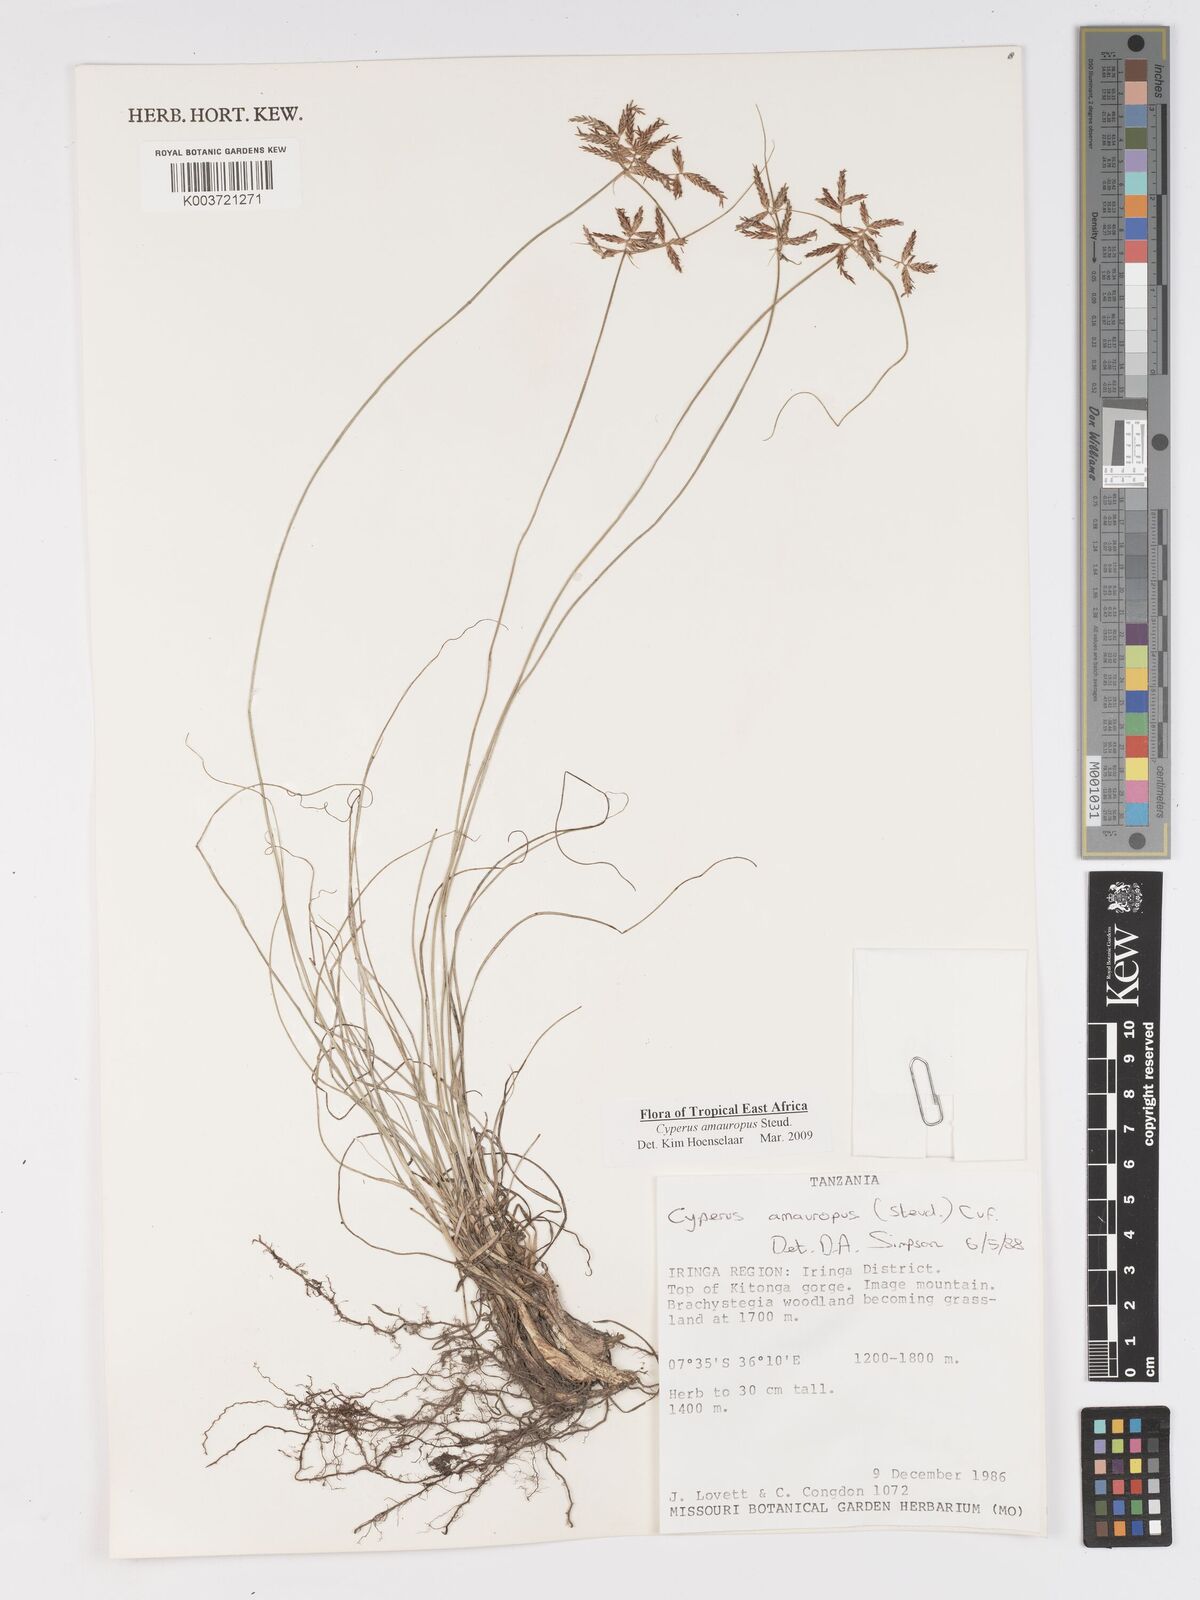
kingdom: Plantae
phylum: Tracheophyta
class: Liliopsida
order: Poales
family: Cyperaceae
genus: Cyperus
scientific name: Cyperus amauropus
